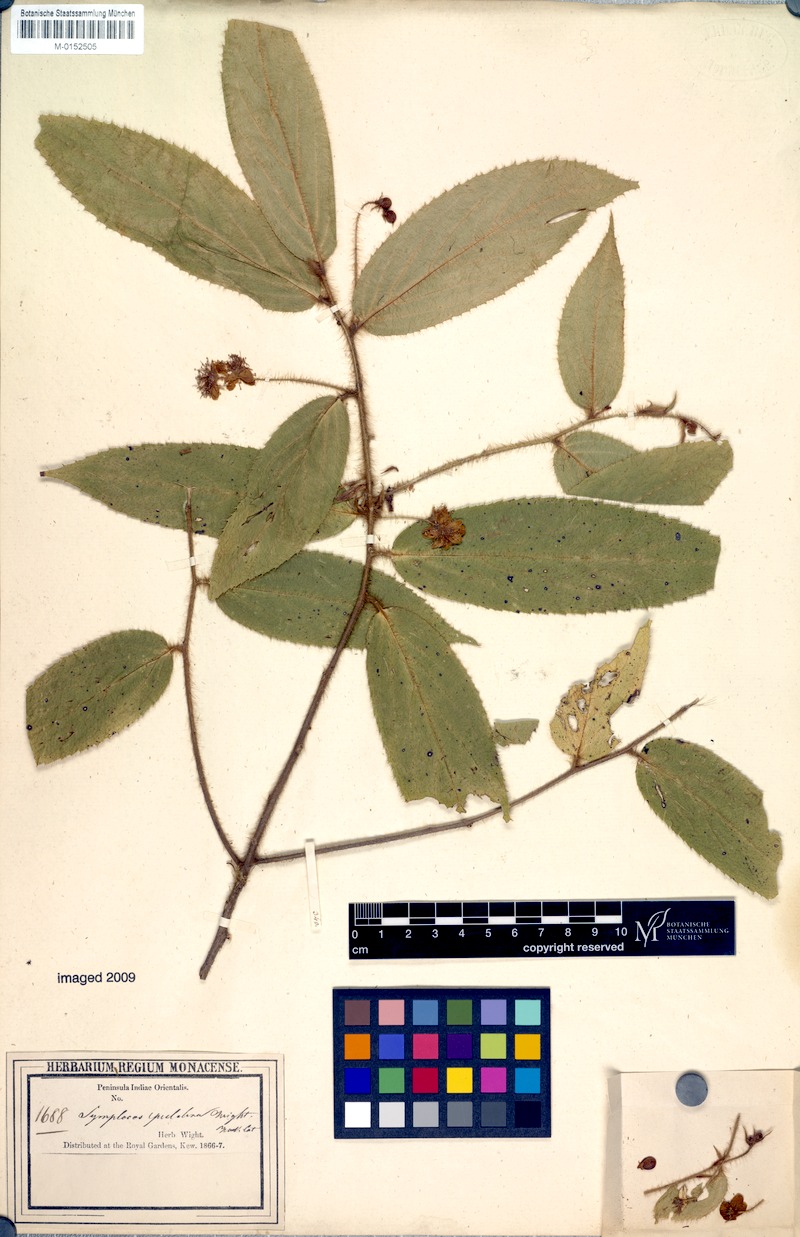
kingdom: Plantae
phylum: Tracheophyta
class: Magnoliopsida
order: Ericales
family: Symplocaceae
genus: Symplocos
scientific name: Symplocos pulchra
